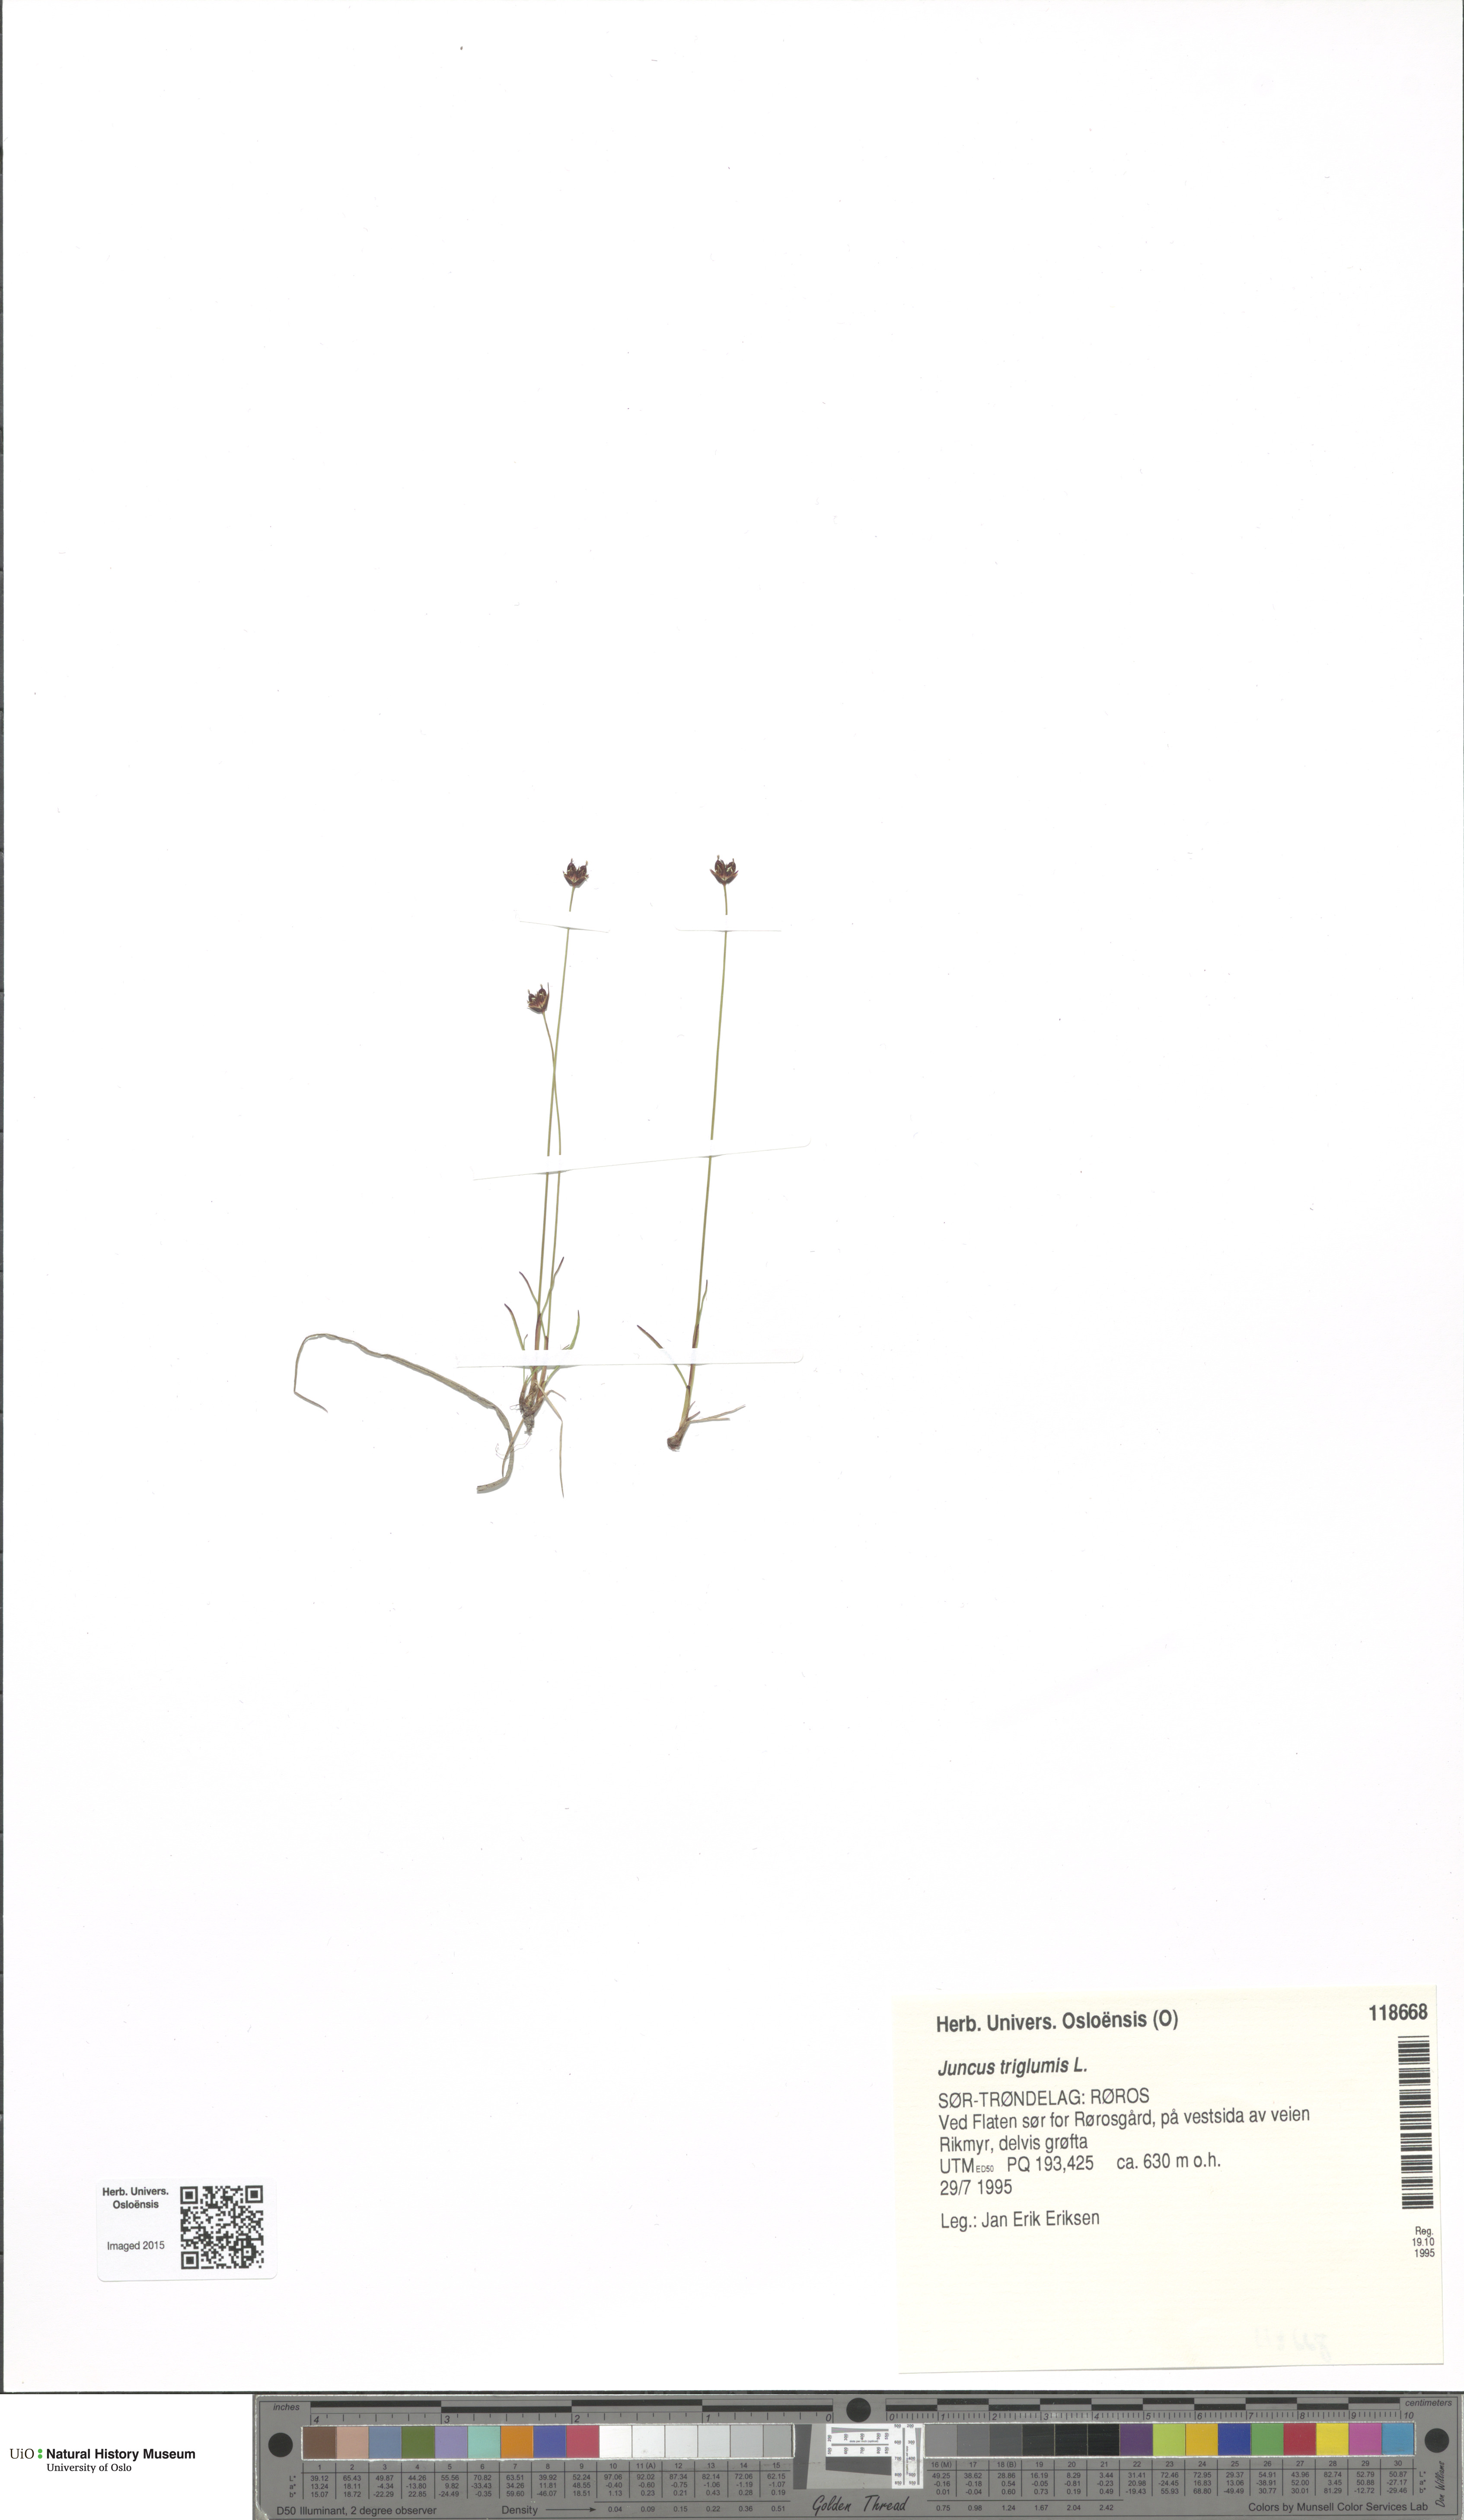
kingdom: Plantae
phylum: Tracheophyta
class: Liliopsida
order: Poales
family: Juncaceae
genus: Juncus
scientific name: Juncus triglumis
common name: Three-flowered rush
